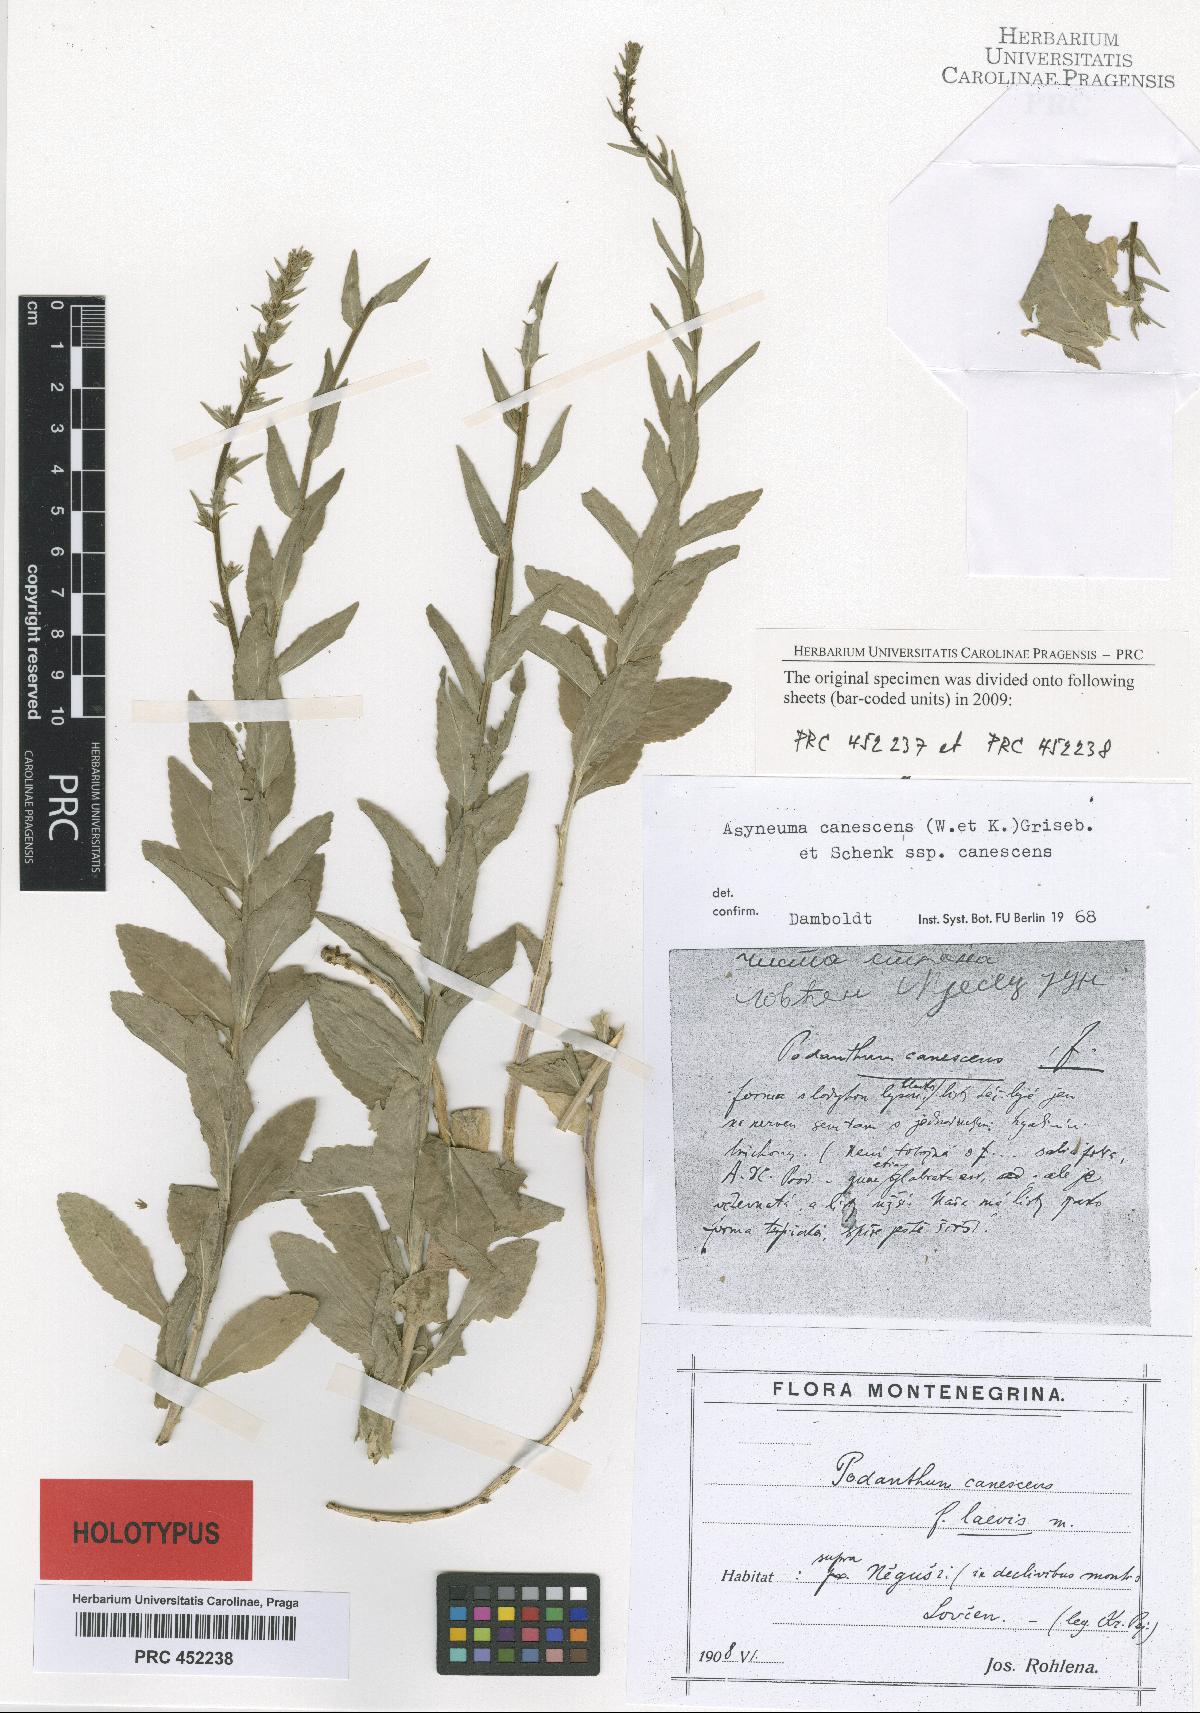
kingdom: Plantae
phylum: Tracheophyta
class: Magnoliopsida
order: Asterales
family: Campanulaceae
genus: Asyneuma
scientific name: Asyneuma canescens
